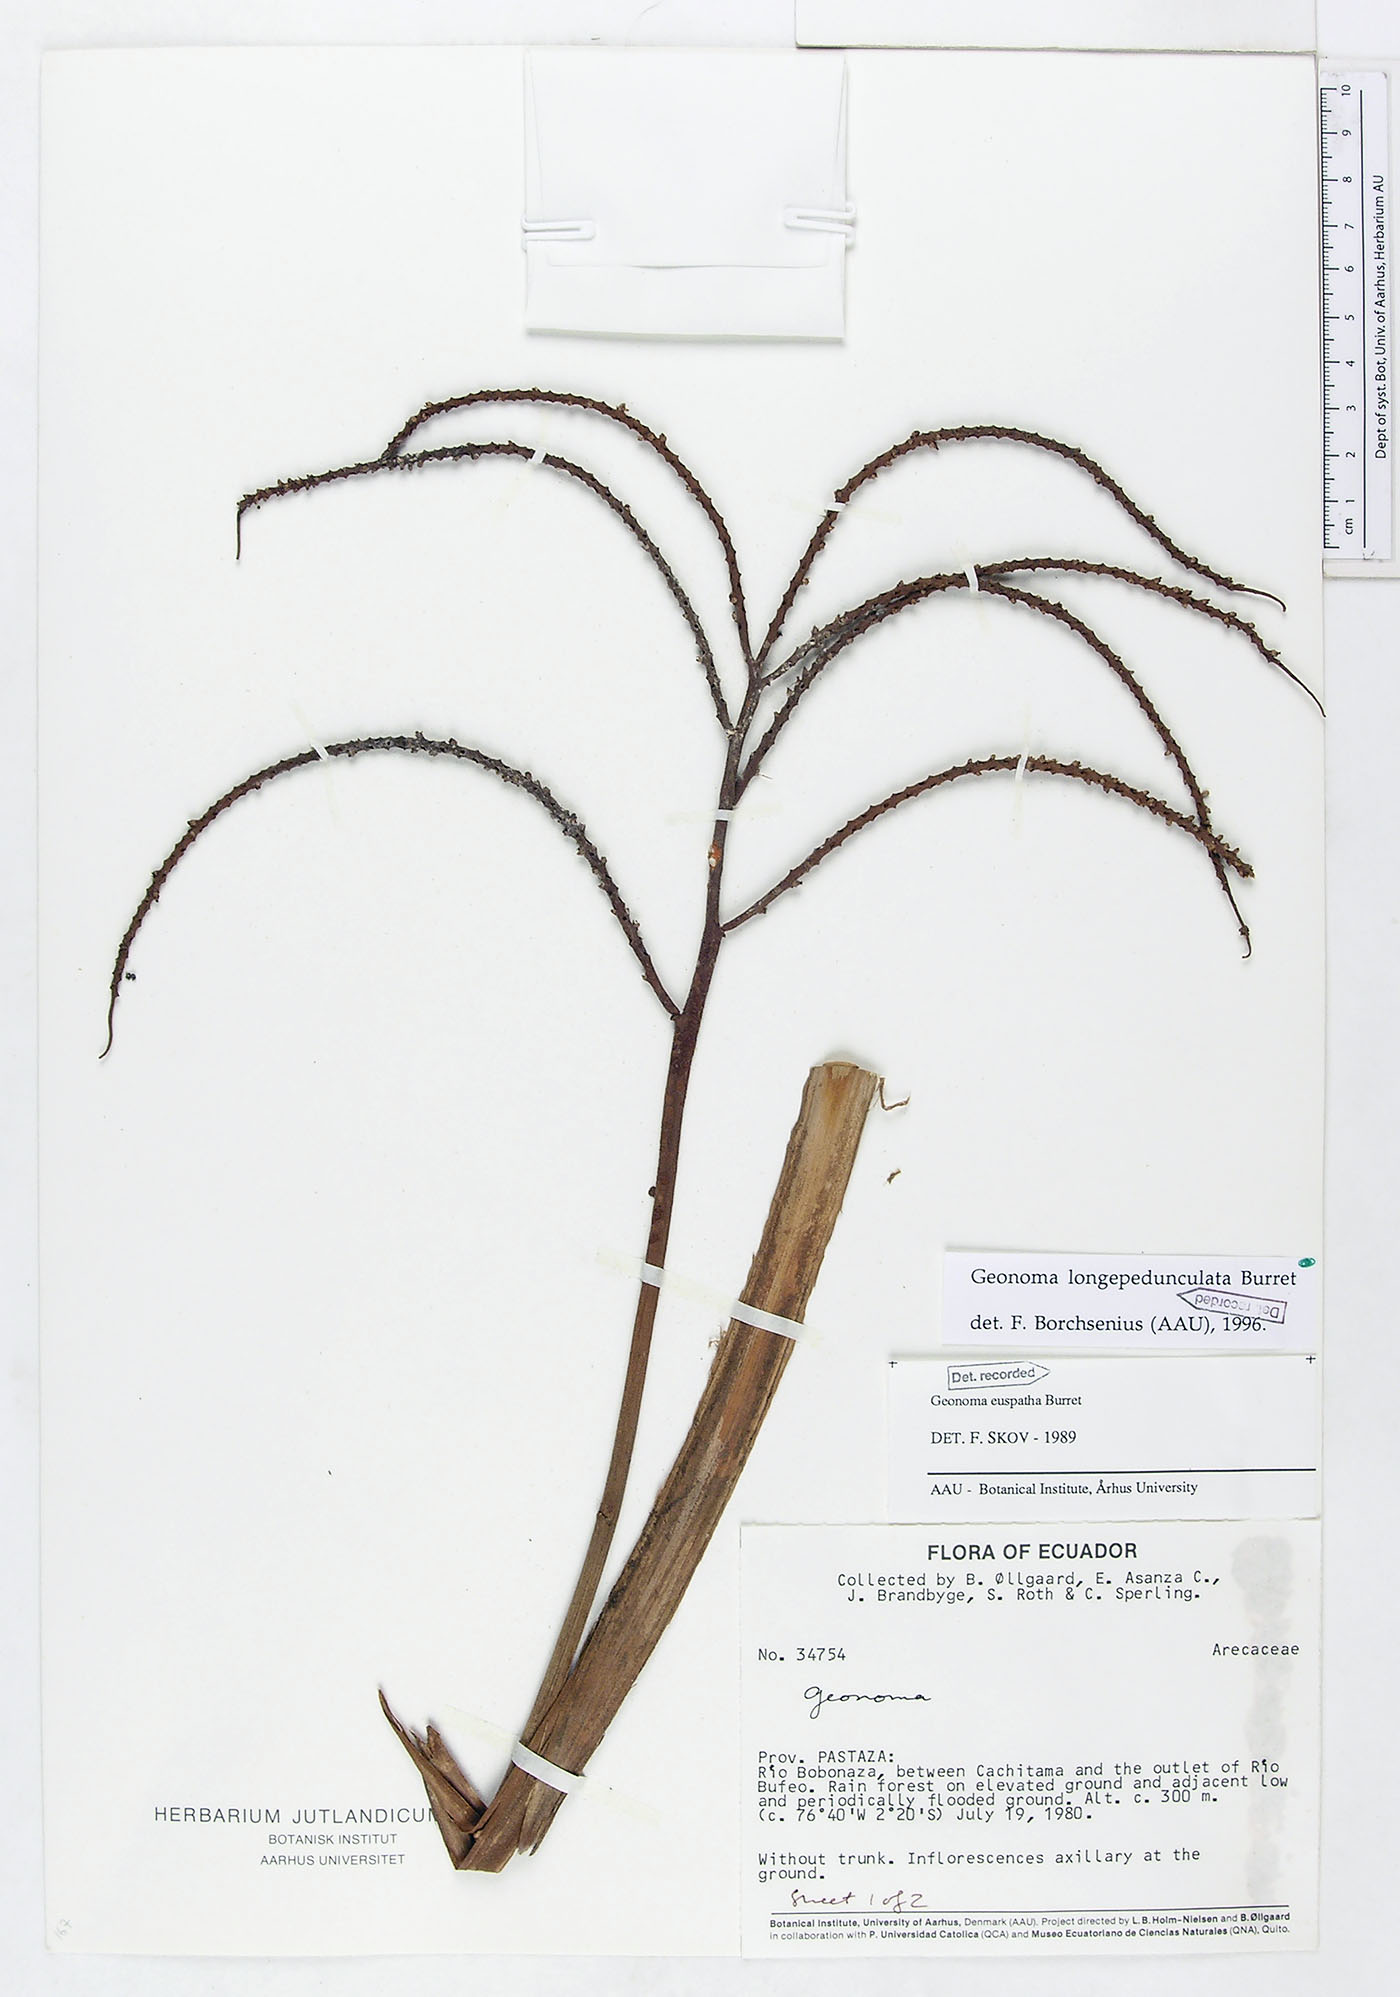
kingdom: Plantae
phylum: Tracheophyta
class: Liliopsida
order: Arecales
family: Arecaceae
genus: Geonoma
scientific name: Geonoma longepedunculata
